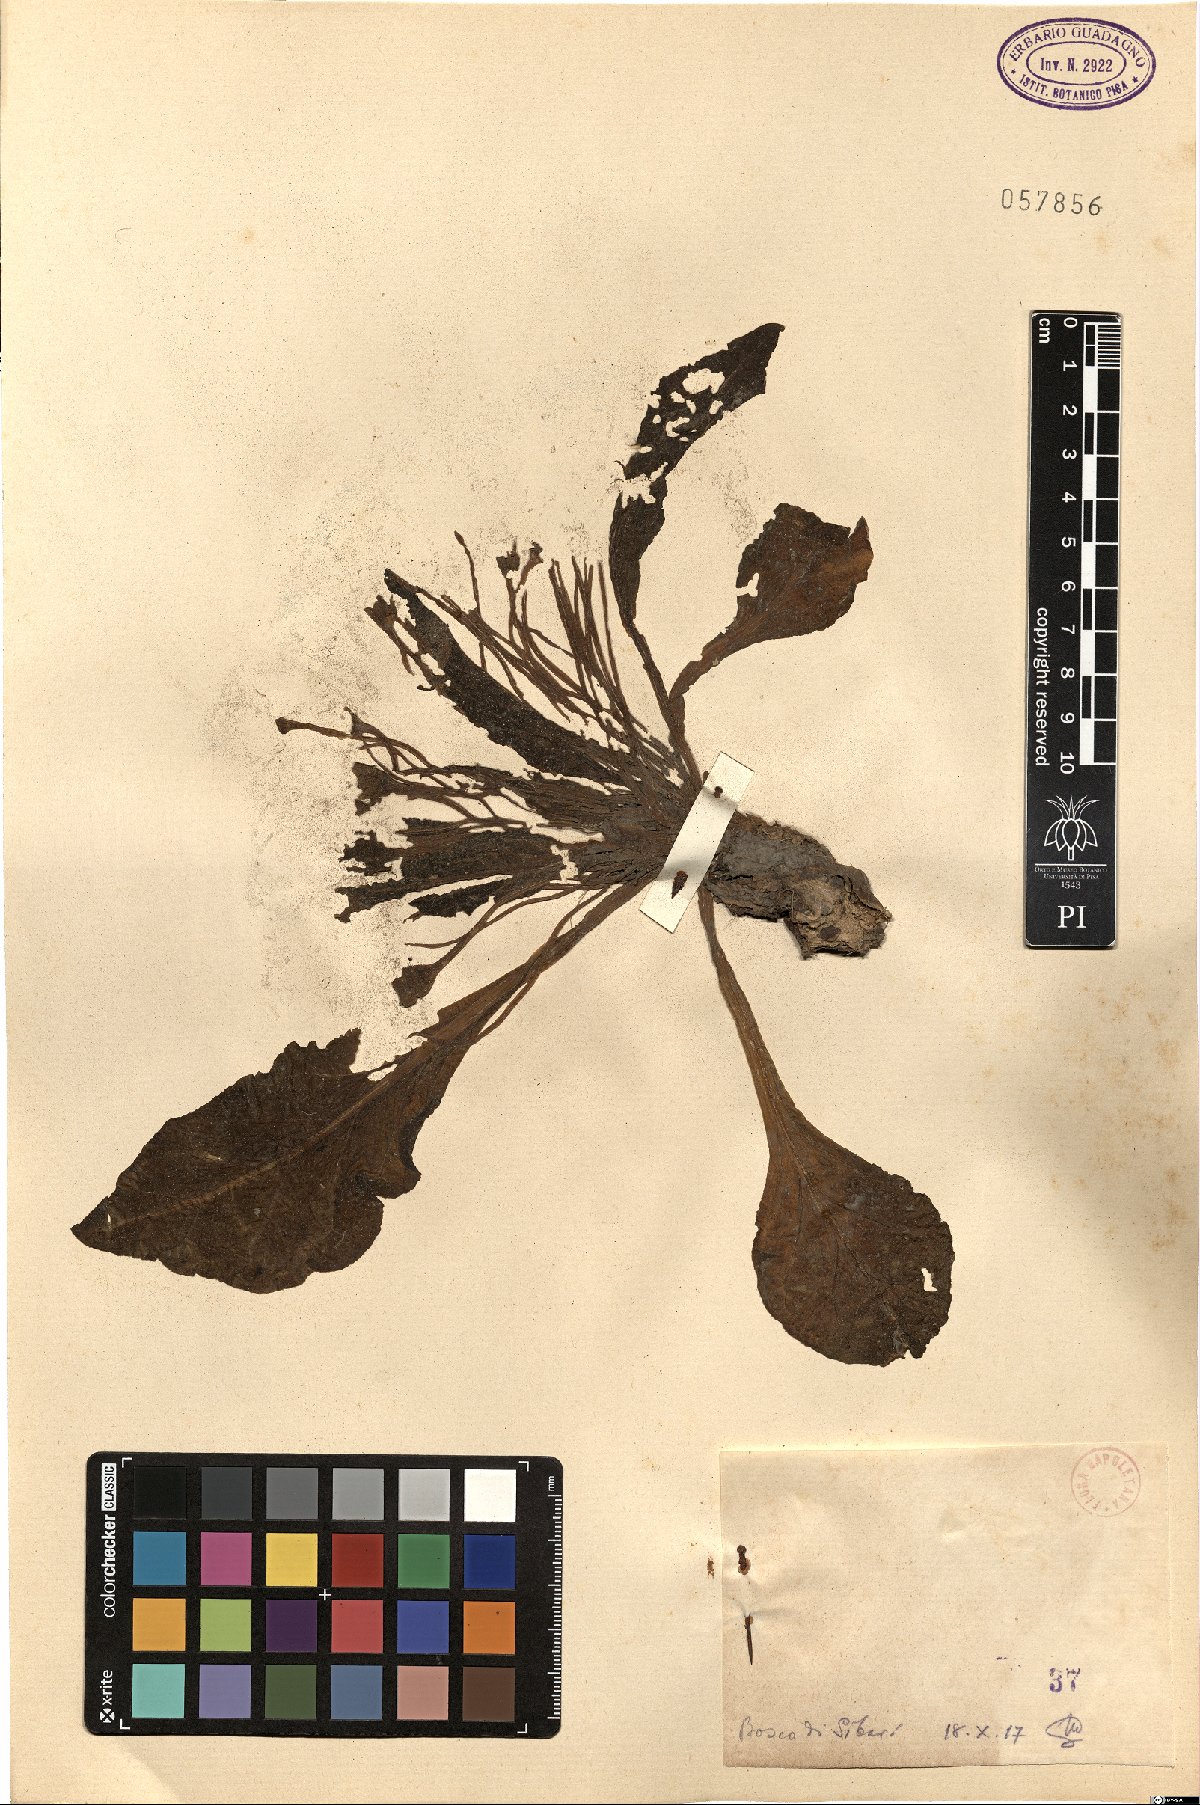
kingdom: Plantae
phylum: Tracheophyta
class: Magnoliopsida
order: Solanales
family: Solanaceae
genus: Mandragora
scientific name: Mandragora
